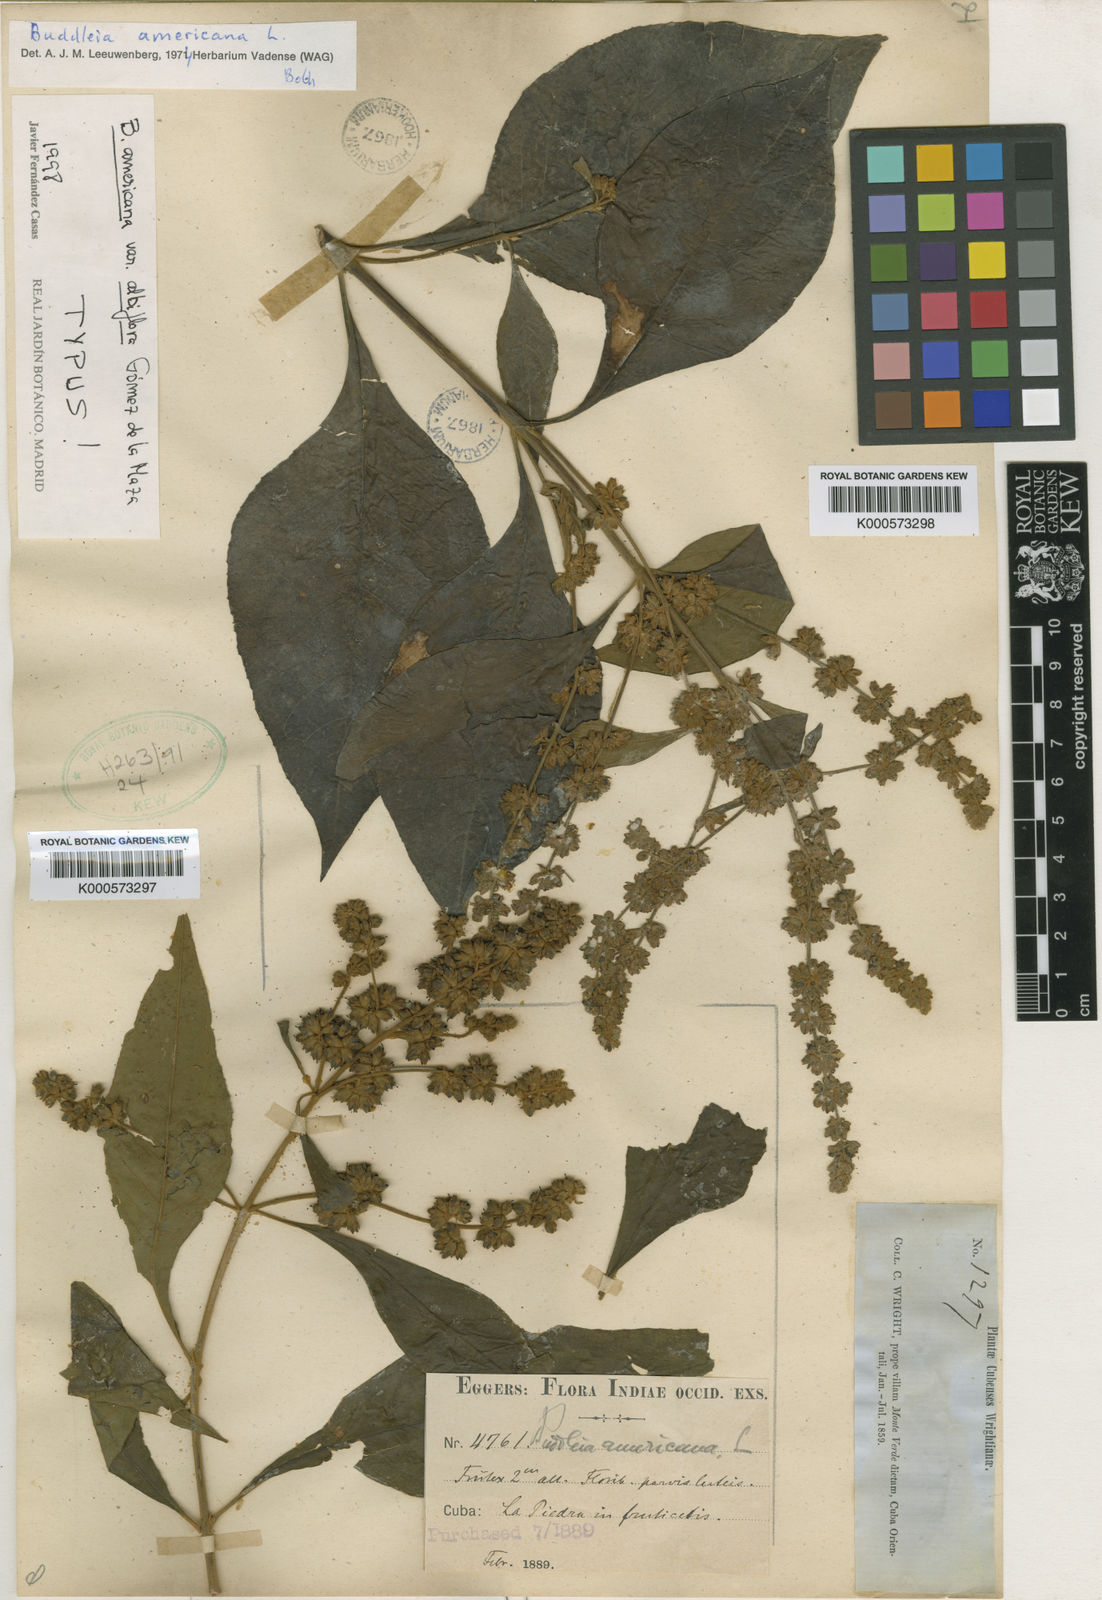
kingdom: Plantae
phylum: Tracheophyta
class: Magnoliopsida
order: Lamiales
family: Scrophulariaceae
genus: Buddleja
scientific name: Buddleja americana
